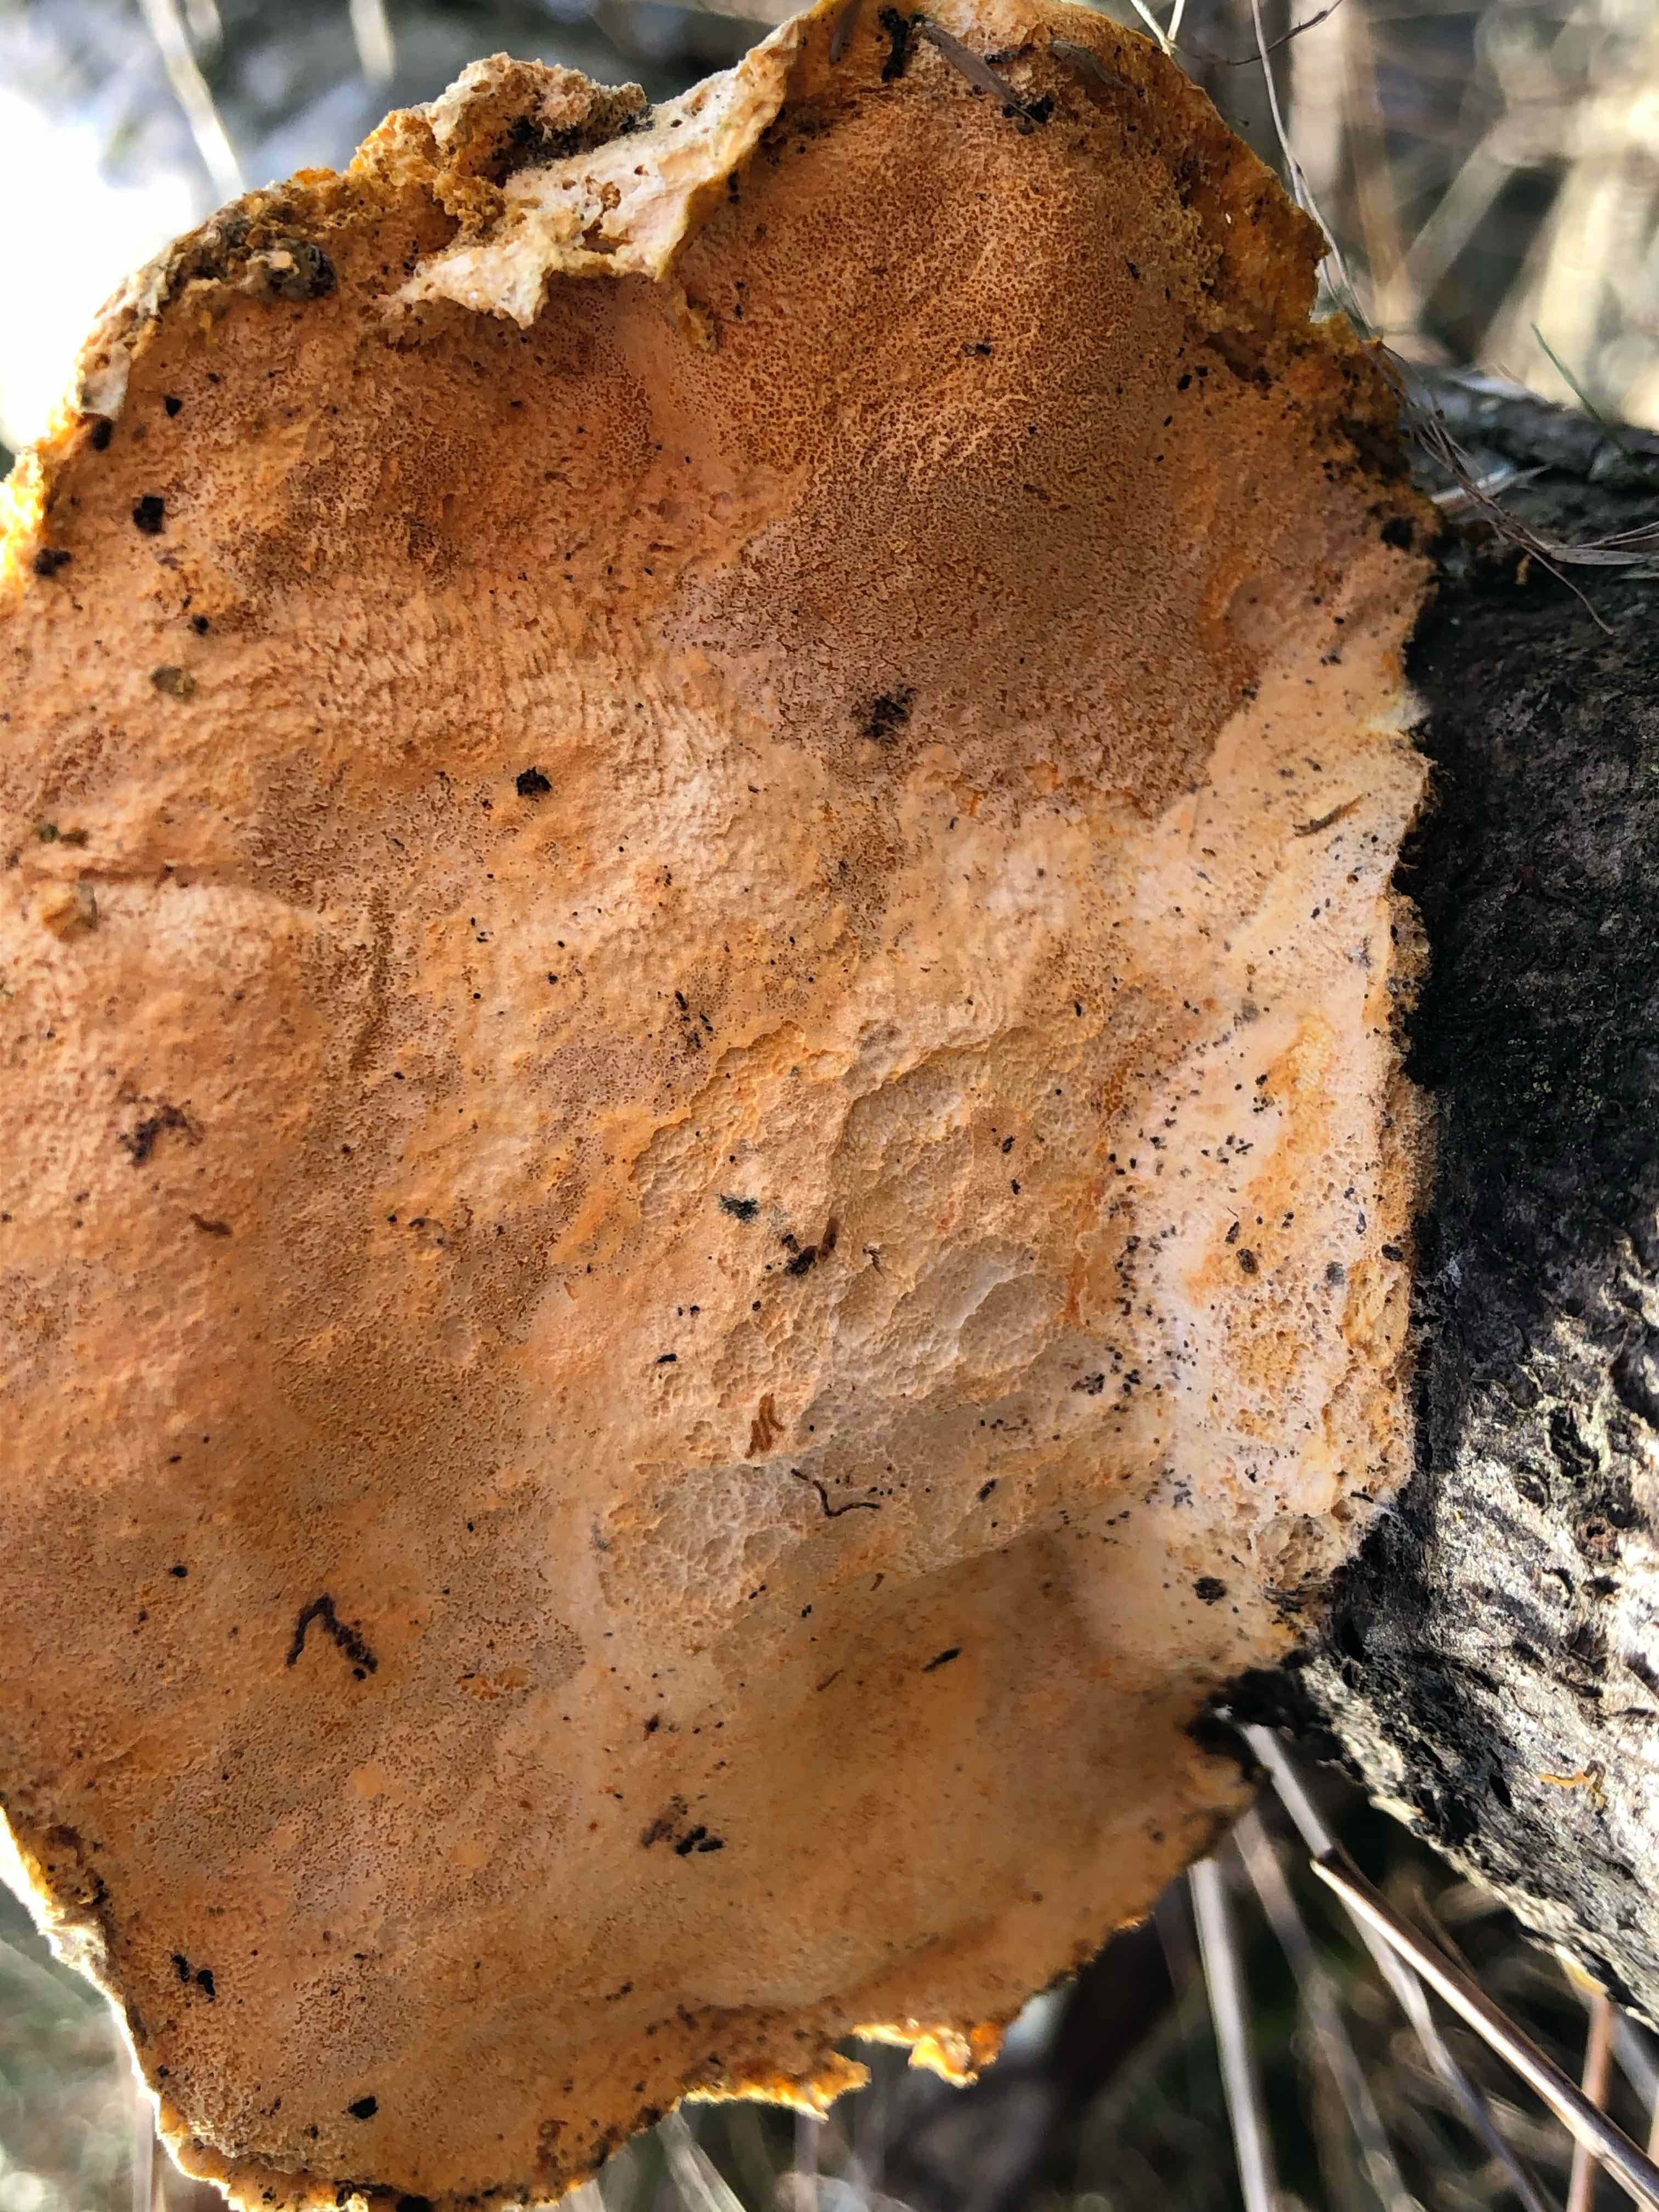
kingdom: Fungi
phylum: Basidiomycota
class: Agaricomycetes
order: Polyporales
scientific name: Polyporales
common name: poresvampordenen
